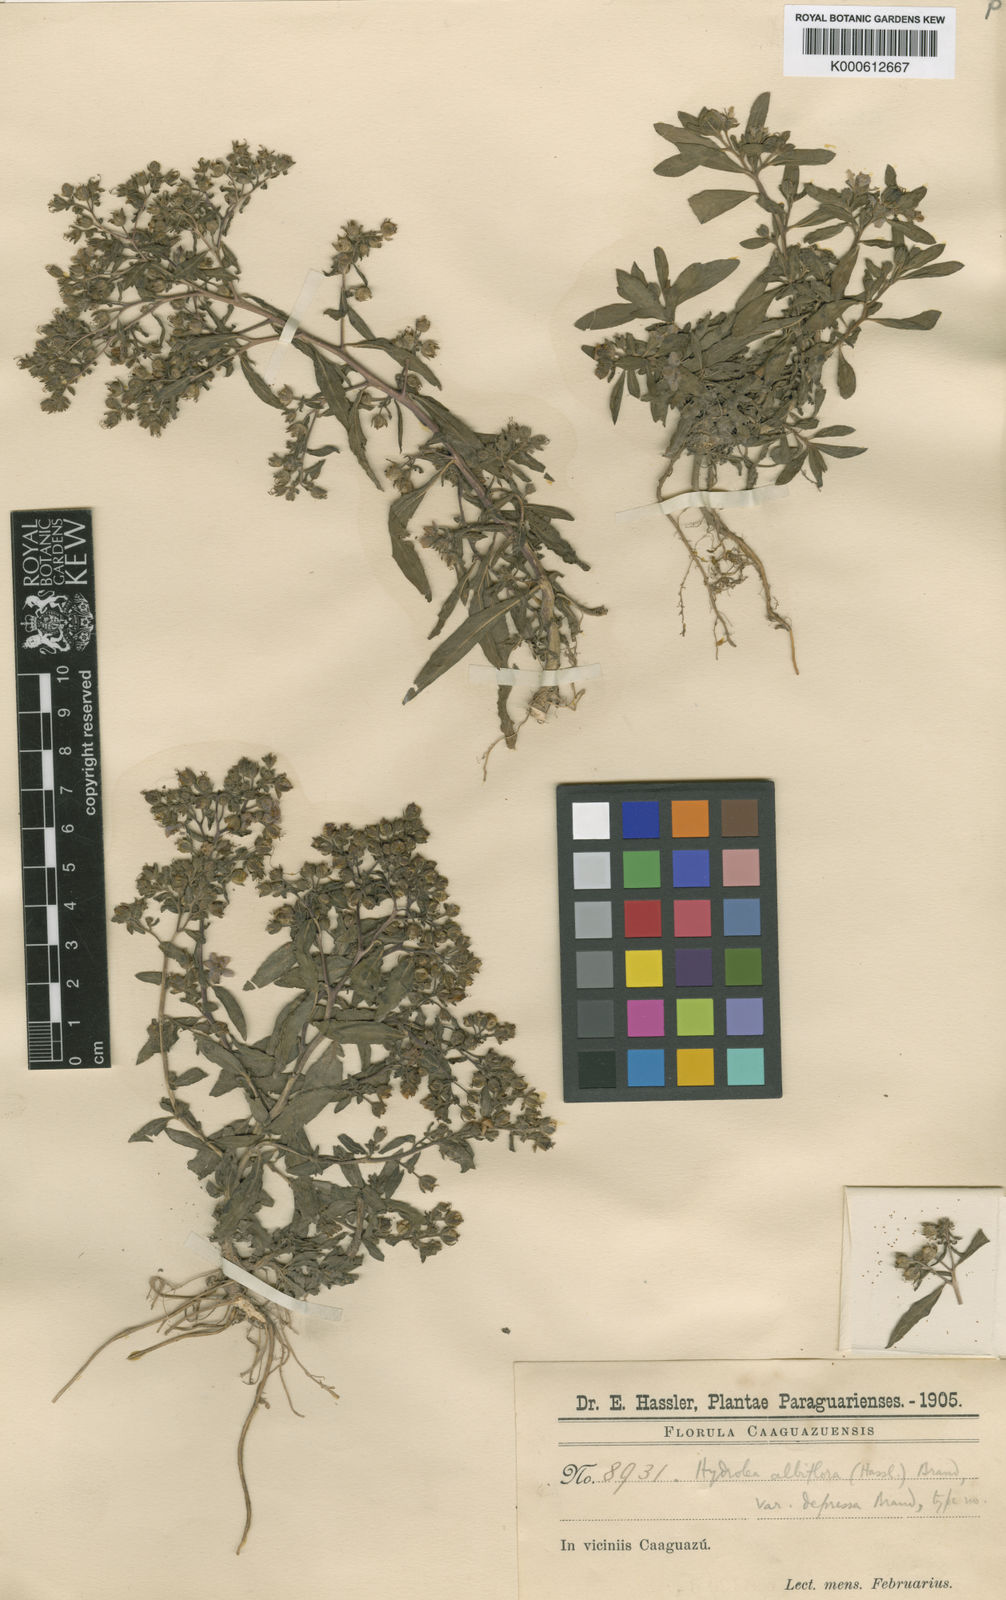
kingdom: Plantae
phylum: Tracheophyta
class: Magnoliopsida
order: Solanales
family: Hydroleaceae
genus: Hydrolea
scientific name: Hydrolea elatior
